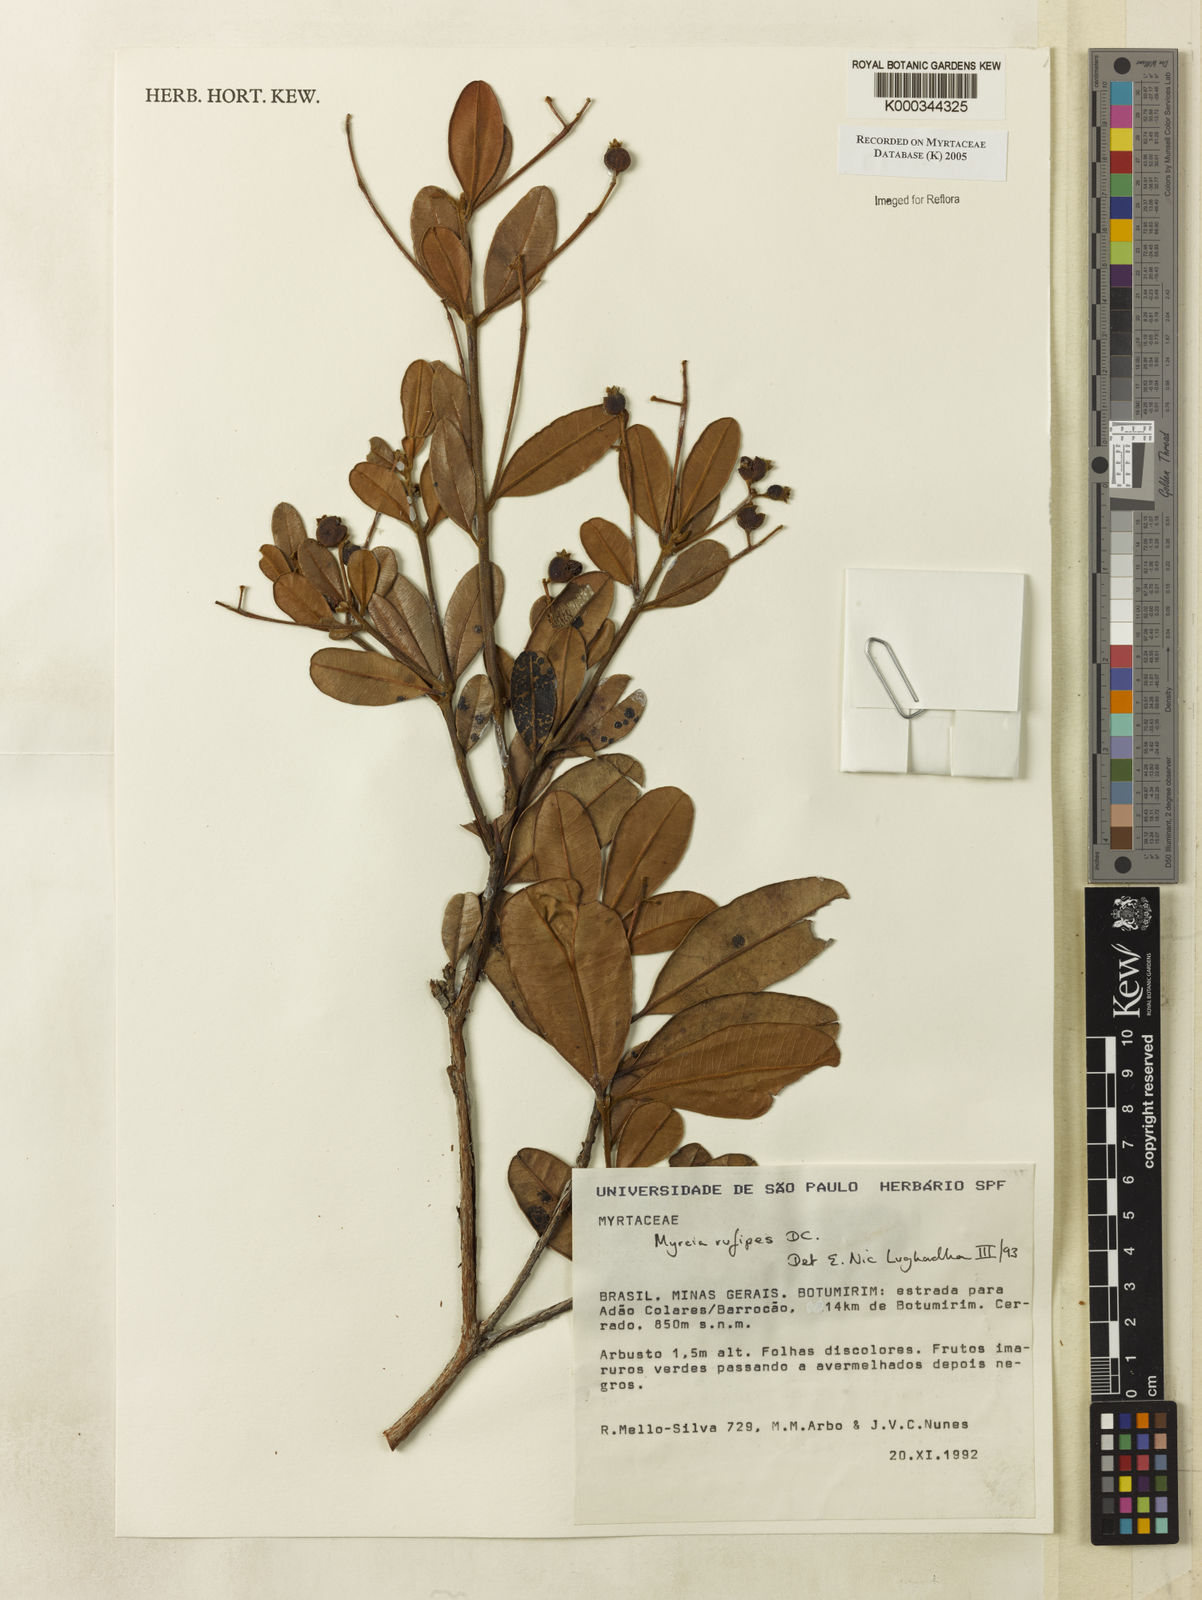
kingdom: Plantae
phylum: Tracheophyta
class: Magnoliopsida
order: Myrtales
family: Myrtaceae
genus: Myrcia
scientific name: Myrcia rufipes
